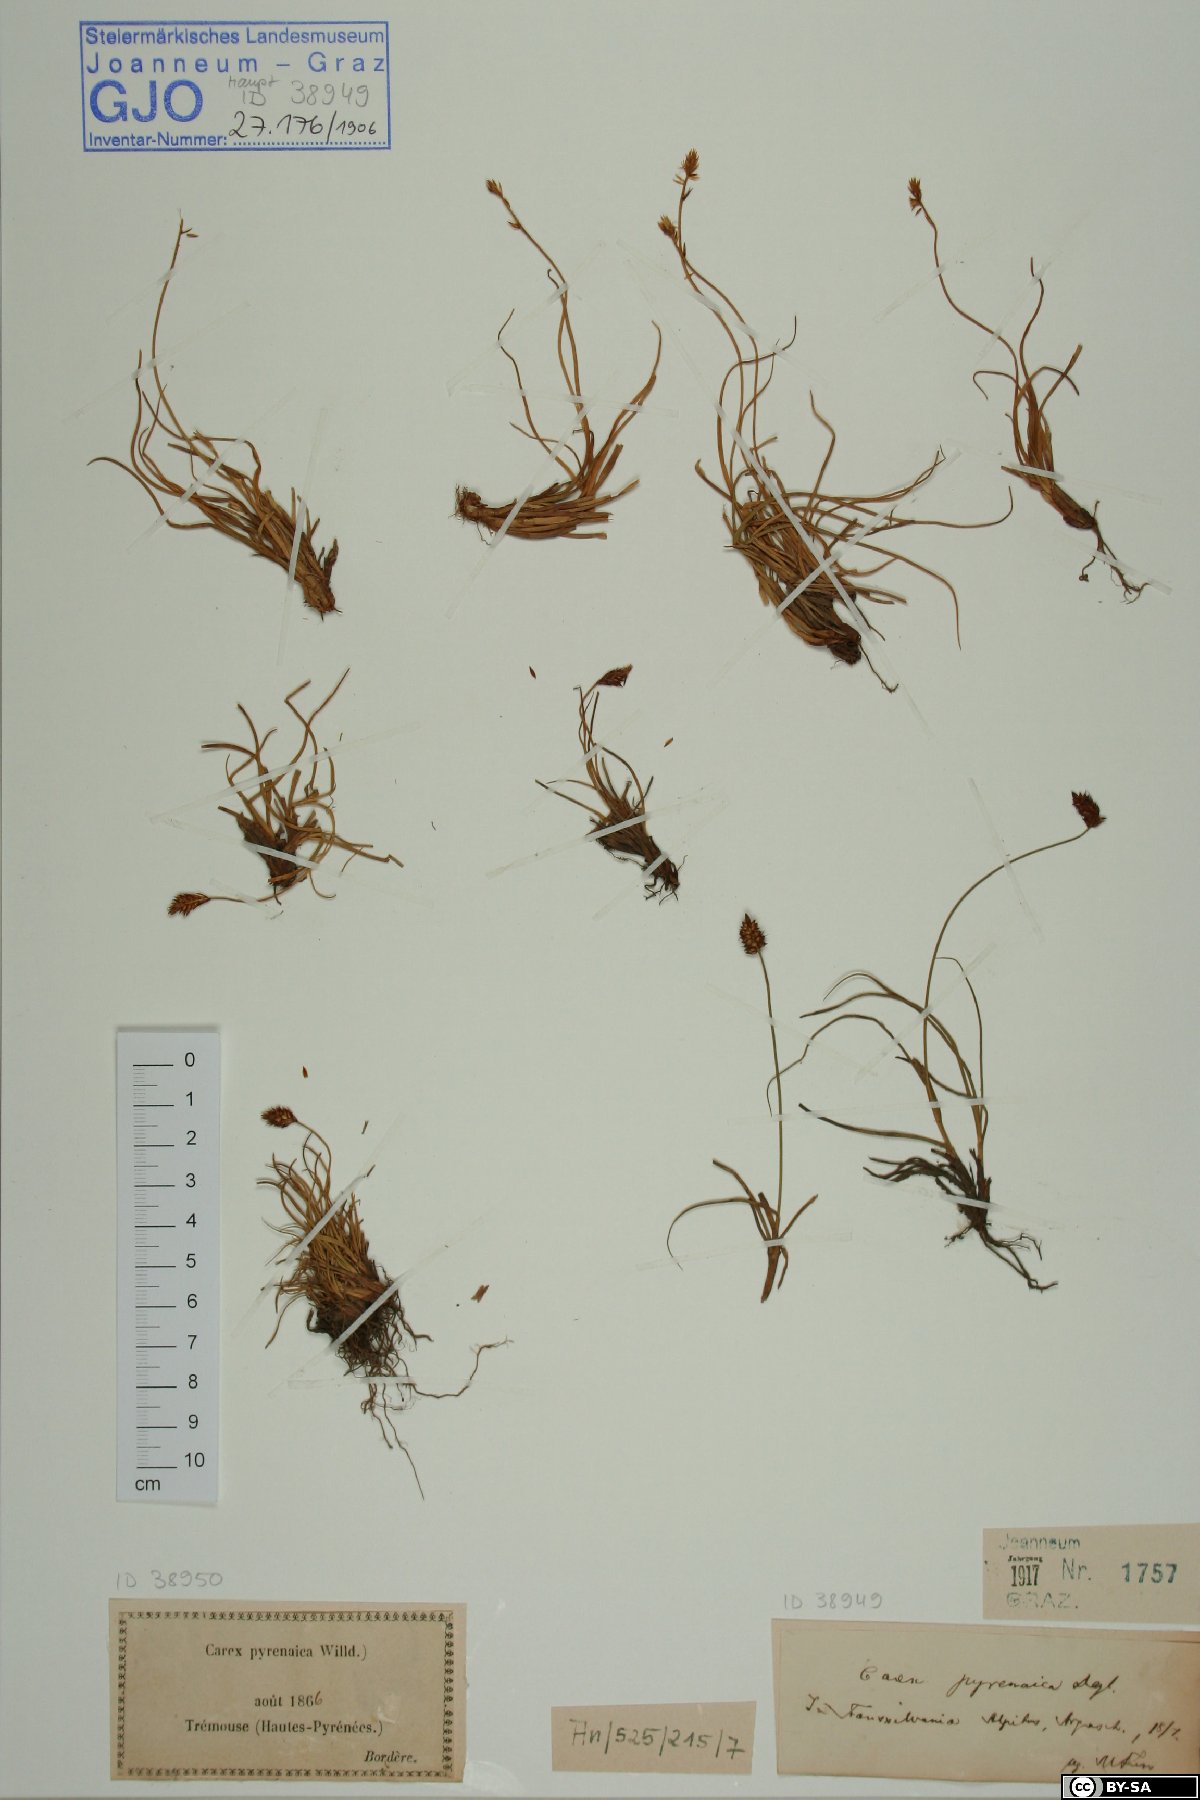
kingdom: Plantae
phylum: Tracheophyta
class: Liliopsida
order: Poales
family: Cyperaceae
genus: Carex
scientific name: Carex pyrenaica
